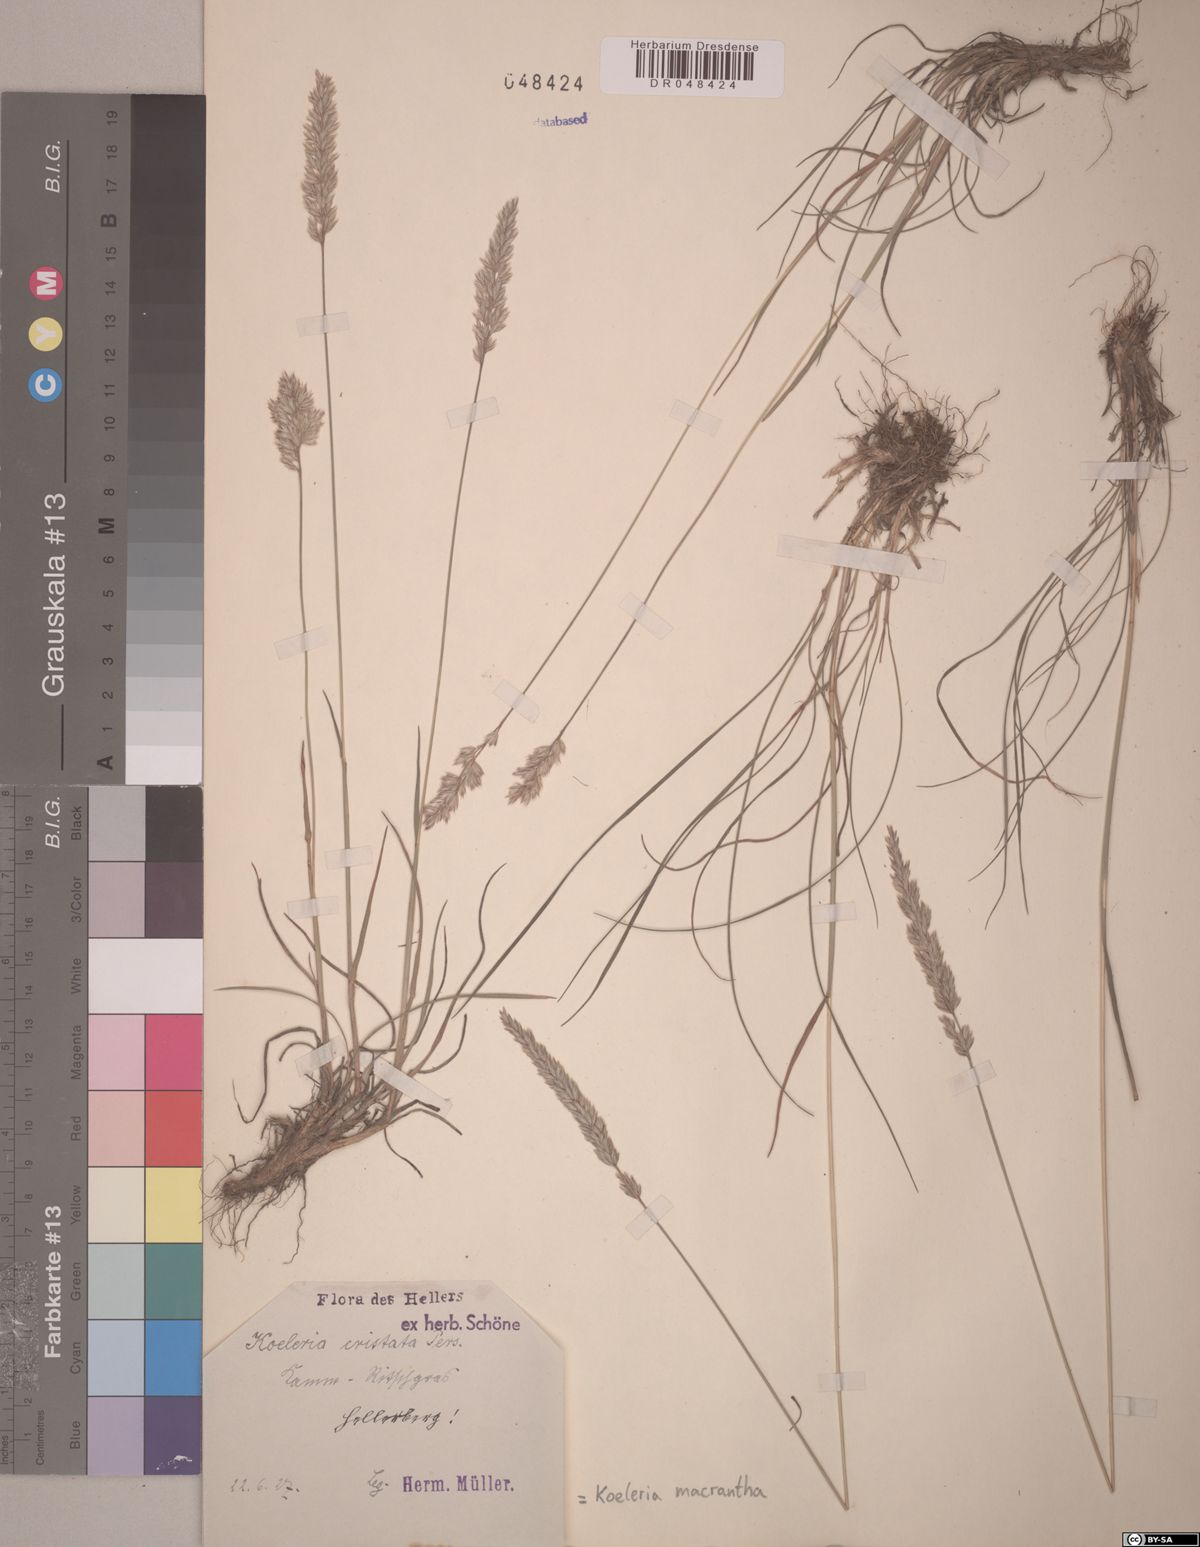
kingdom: Plantae
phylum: Tracheophyta
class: Liliopsida
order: Poales
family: Poaceae
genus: Koeleria
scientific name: Koeleria macrantha
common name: Crested hair-grass
